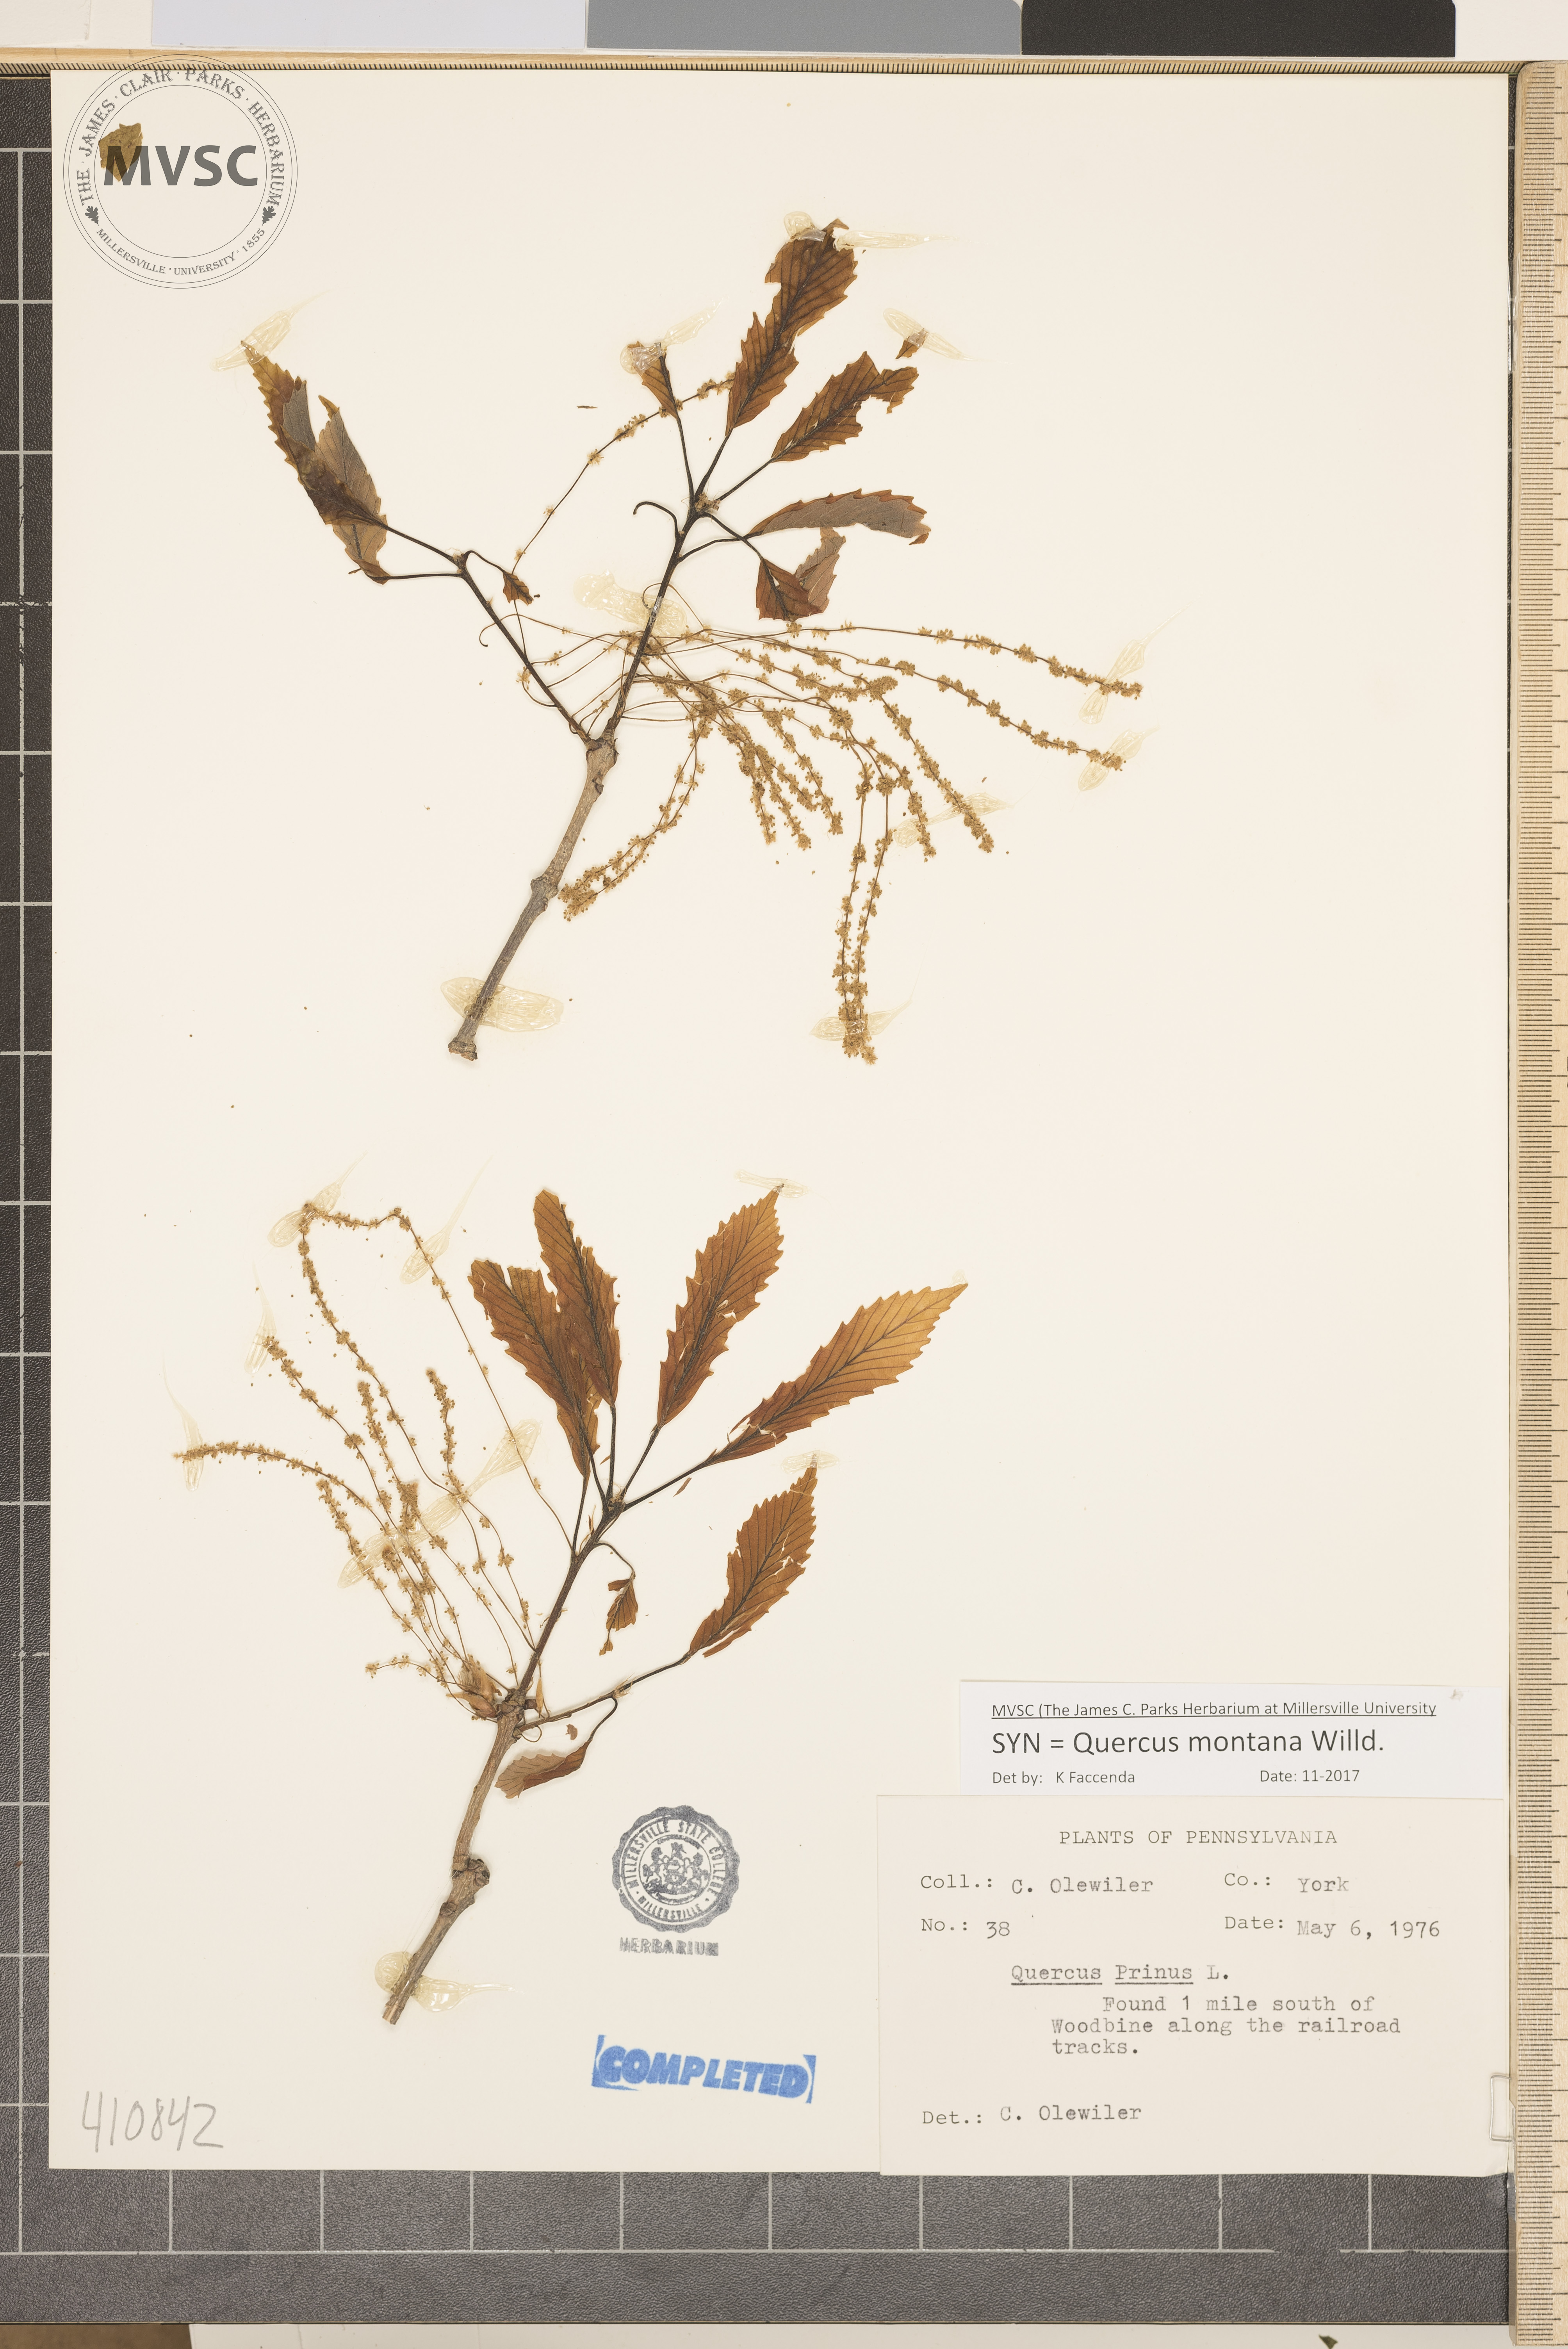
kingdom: Plantae
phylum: Tracheophyta
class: Magnoliopsida
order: Fagales
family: Fagaceae
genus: Quercus
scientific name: Quercus montana
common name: Chestnut oak
